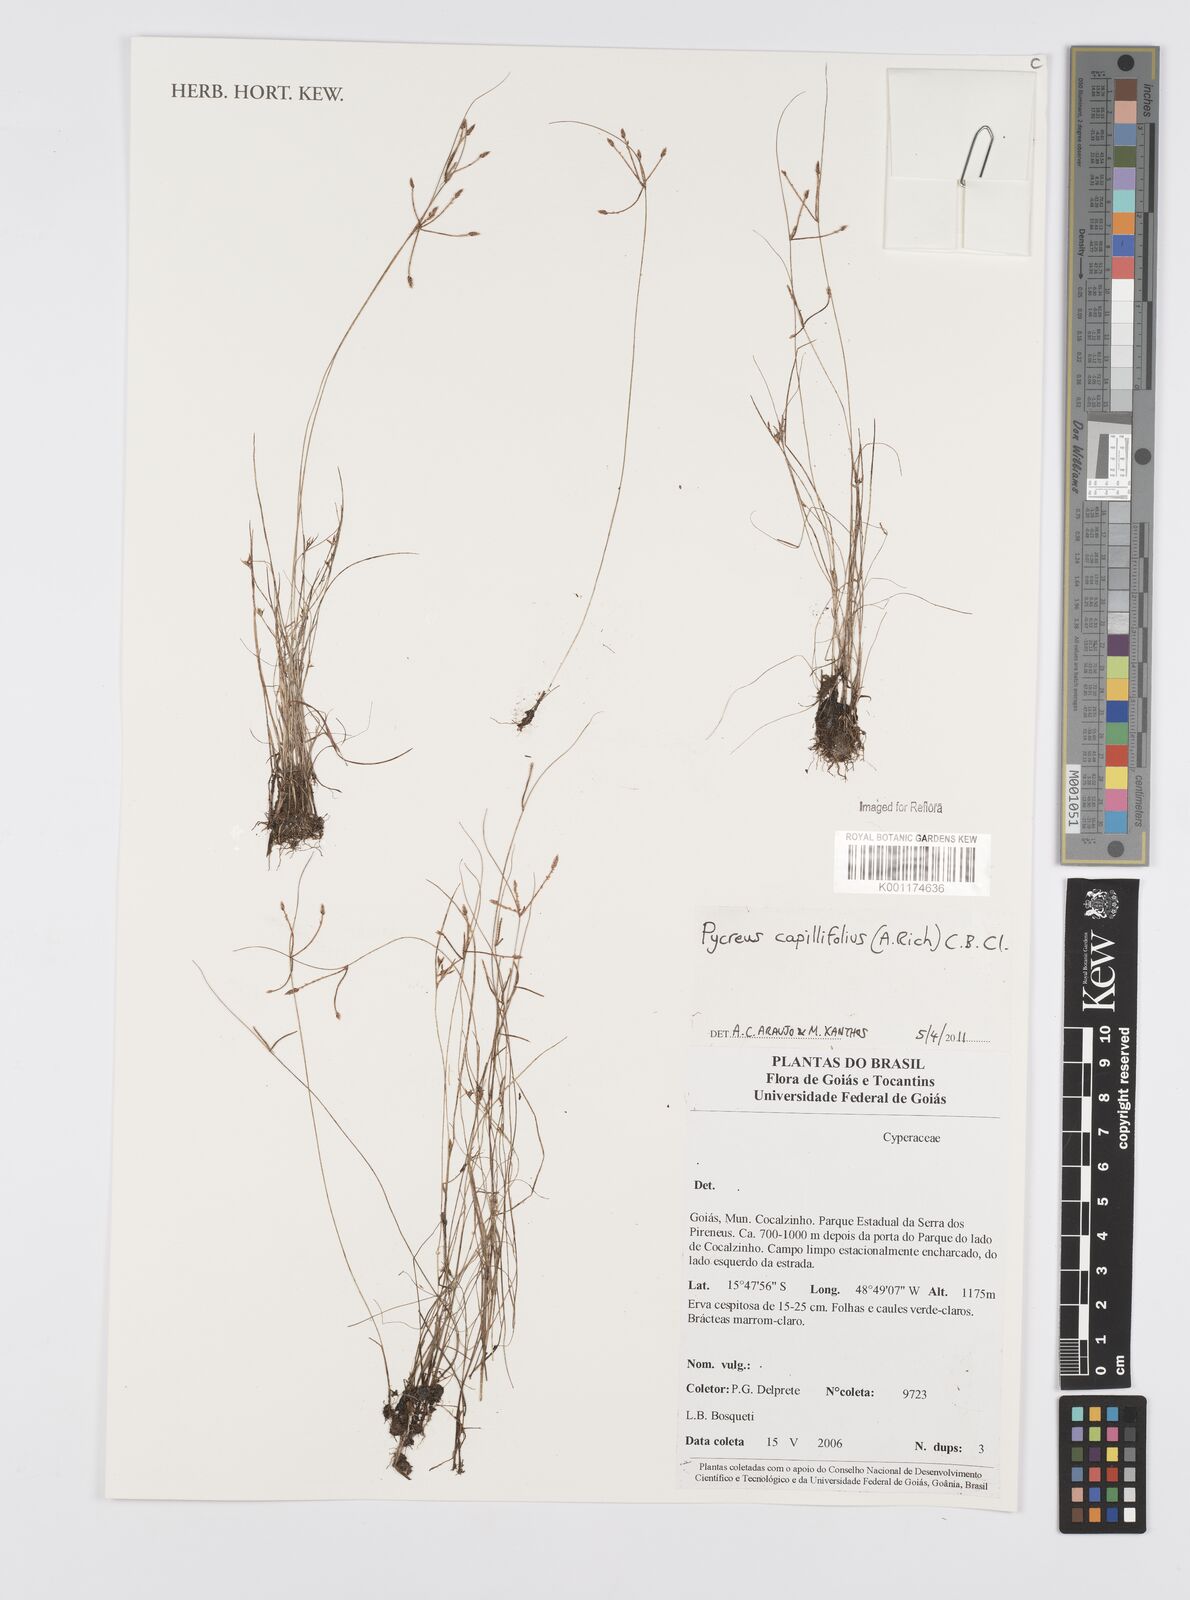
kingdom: Plantae
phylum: Tracheophyta
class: Liliopsida
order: Poales
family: Cyperaceae
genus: Cyperus
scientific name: Cyperus capillifolius
